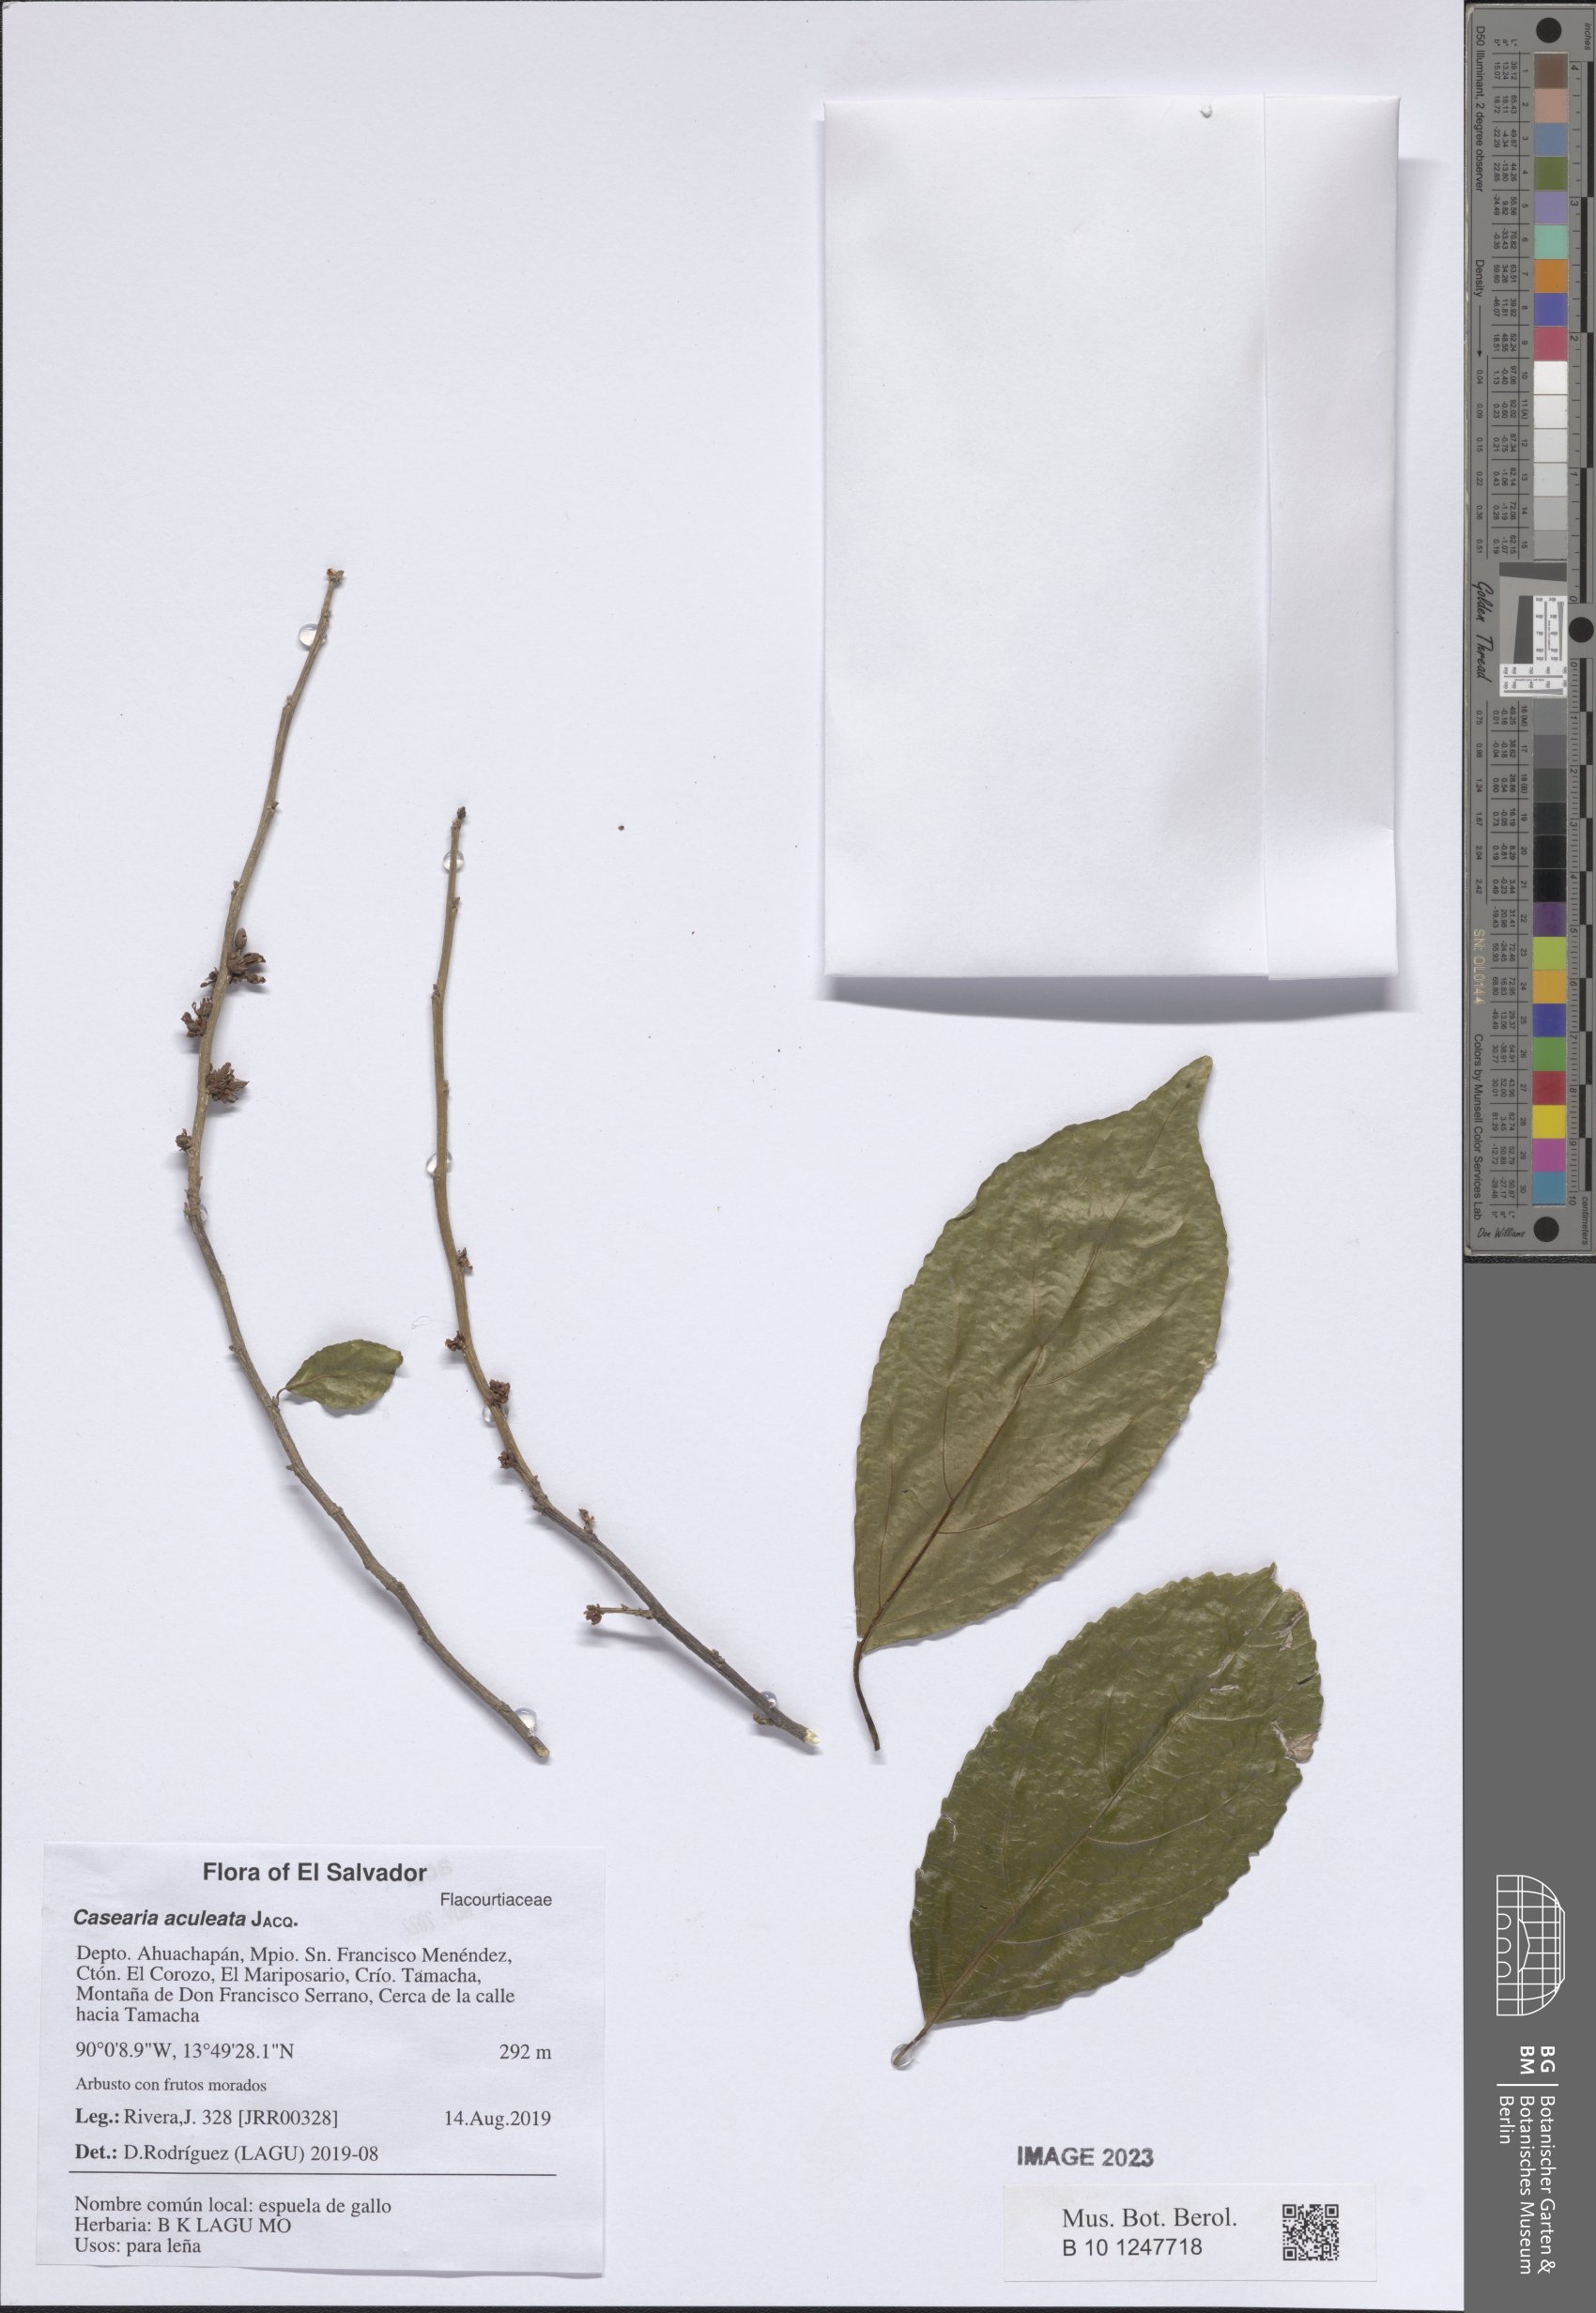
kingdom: Plantae
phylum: Tracheophyta
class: Magnoliopsida
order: Malpighiales
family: Salicaceae
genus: Casearia
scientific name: Casearia aculeata
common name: Cockspur
